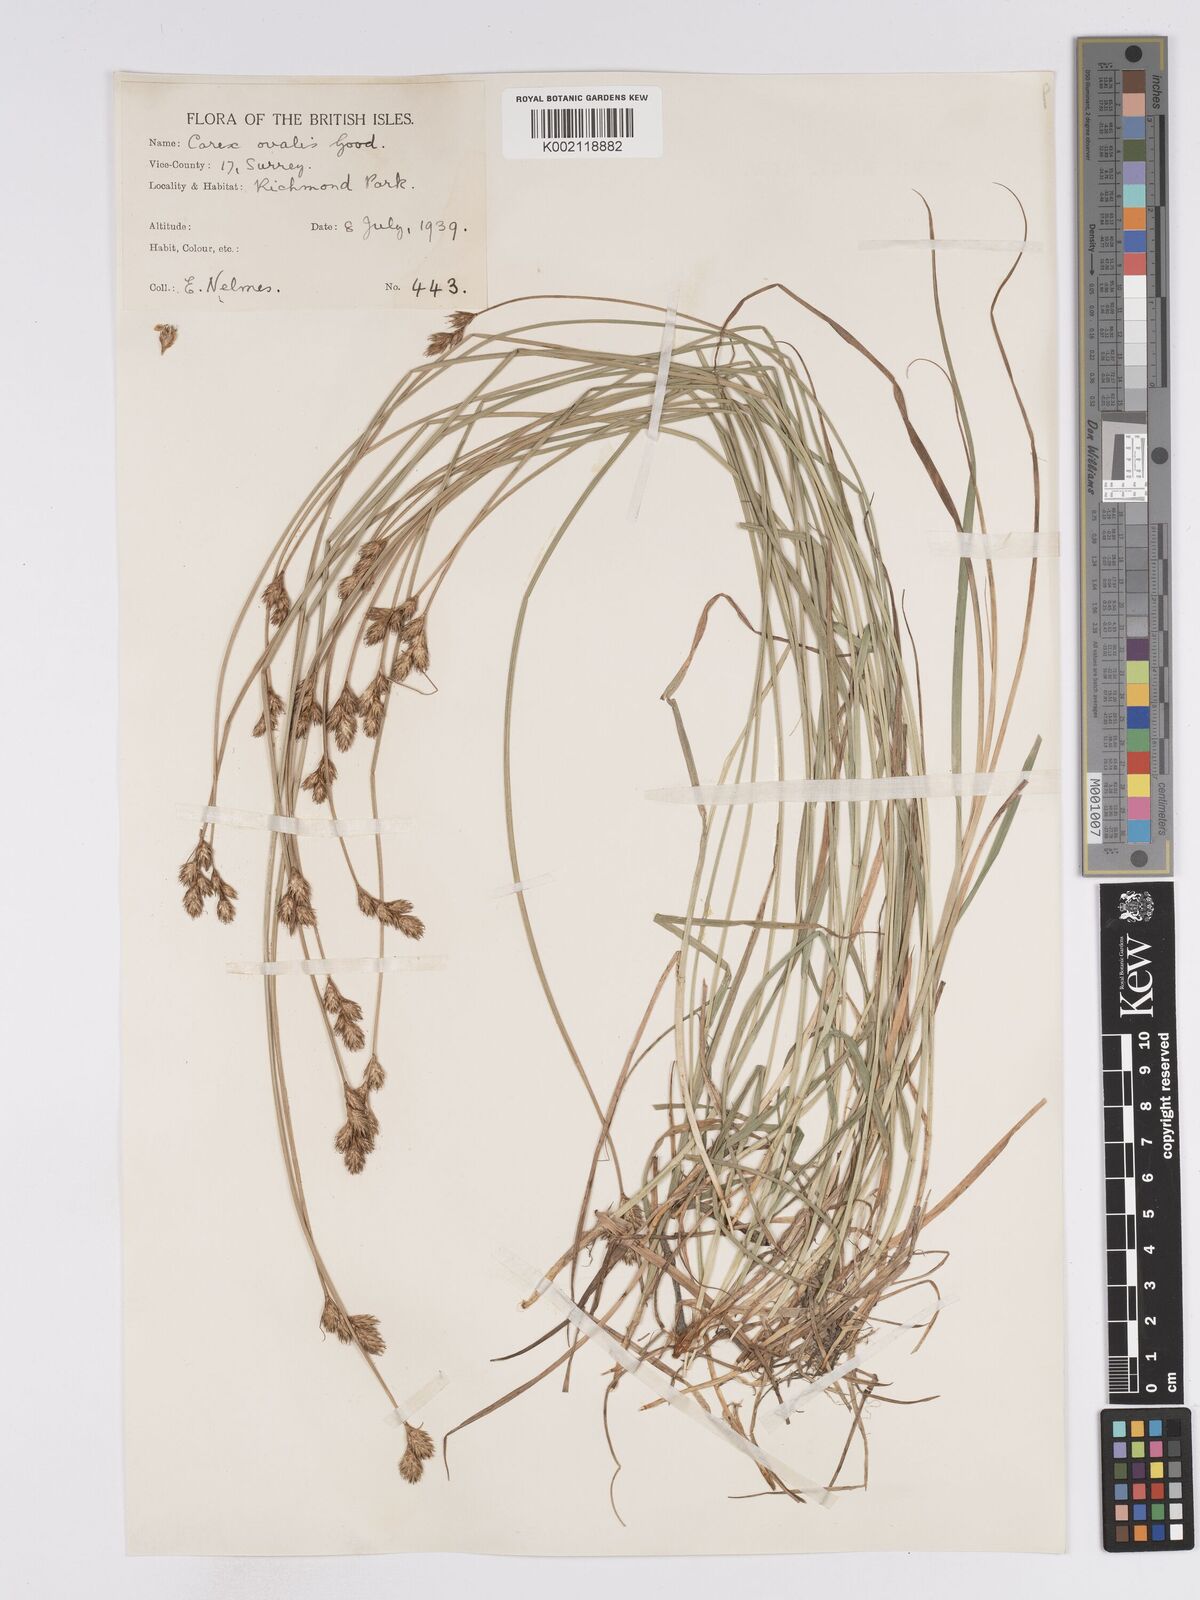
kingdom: Plantae
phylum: Tracheophyta
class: Liliopsida
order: Poales
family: Cyperaceae
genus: Carex
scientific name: Carex leporina
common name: Oval sedge
